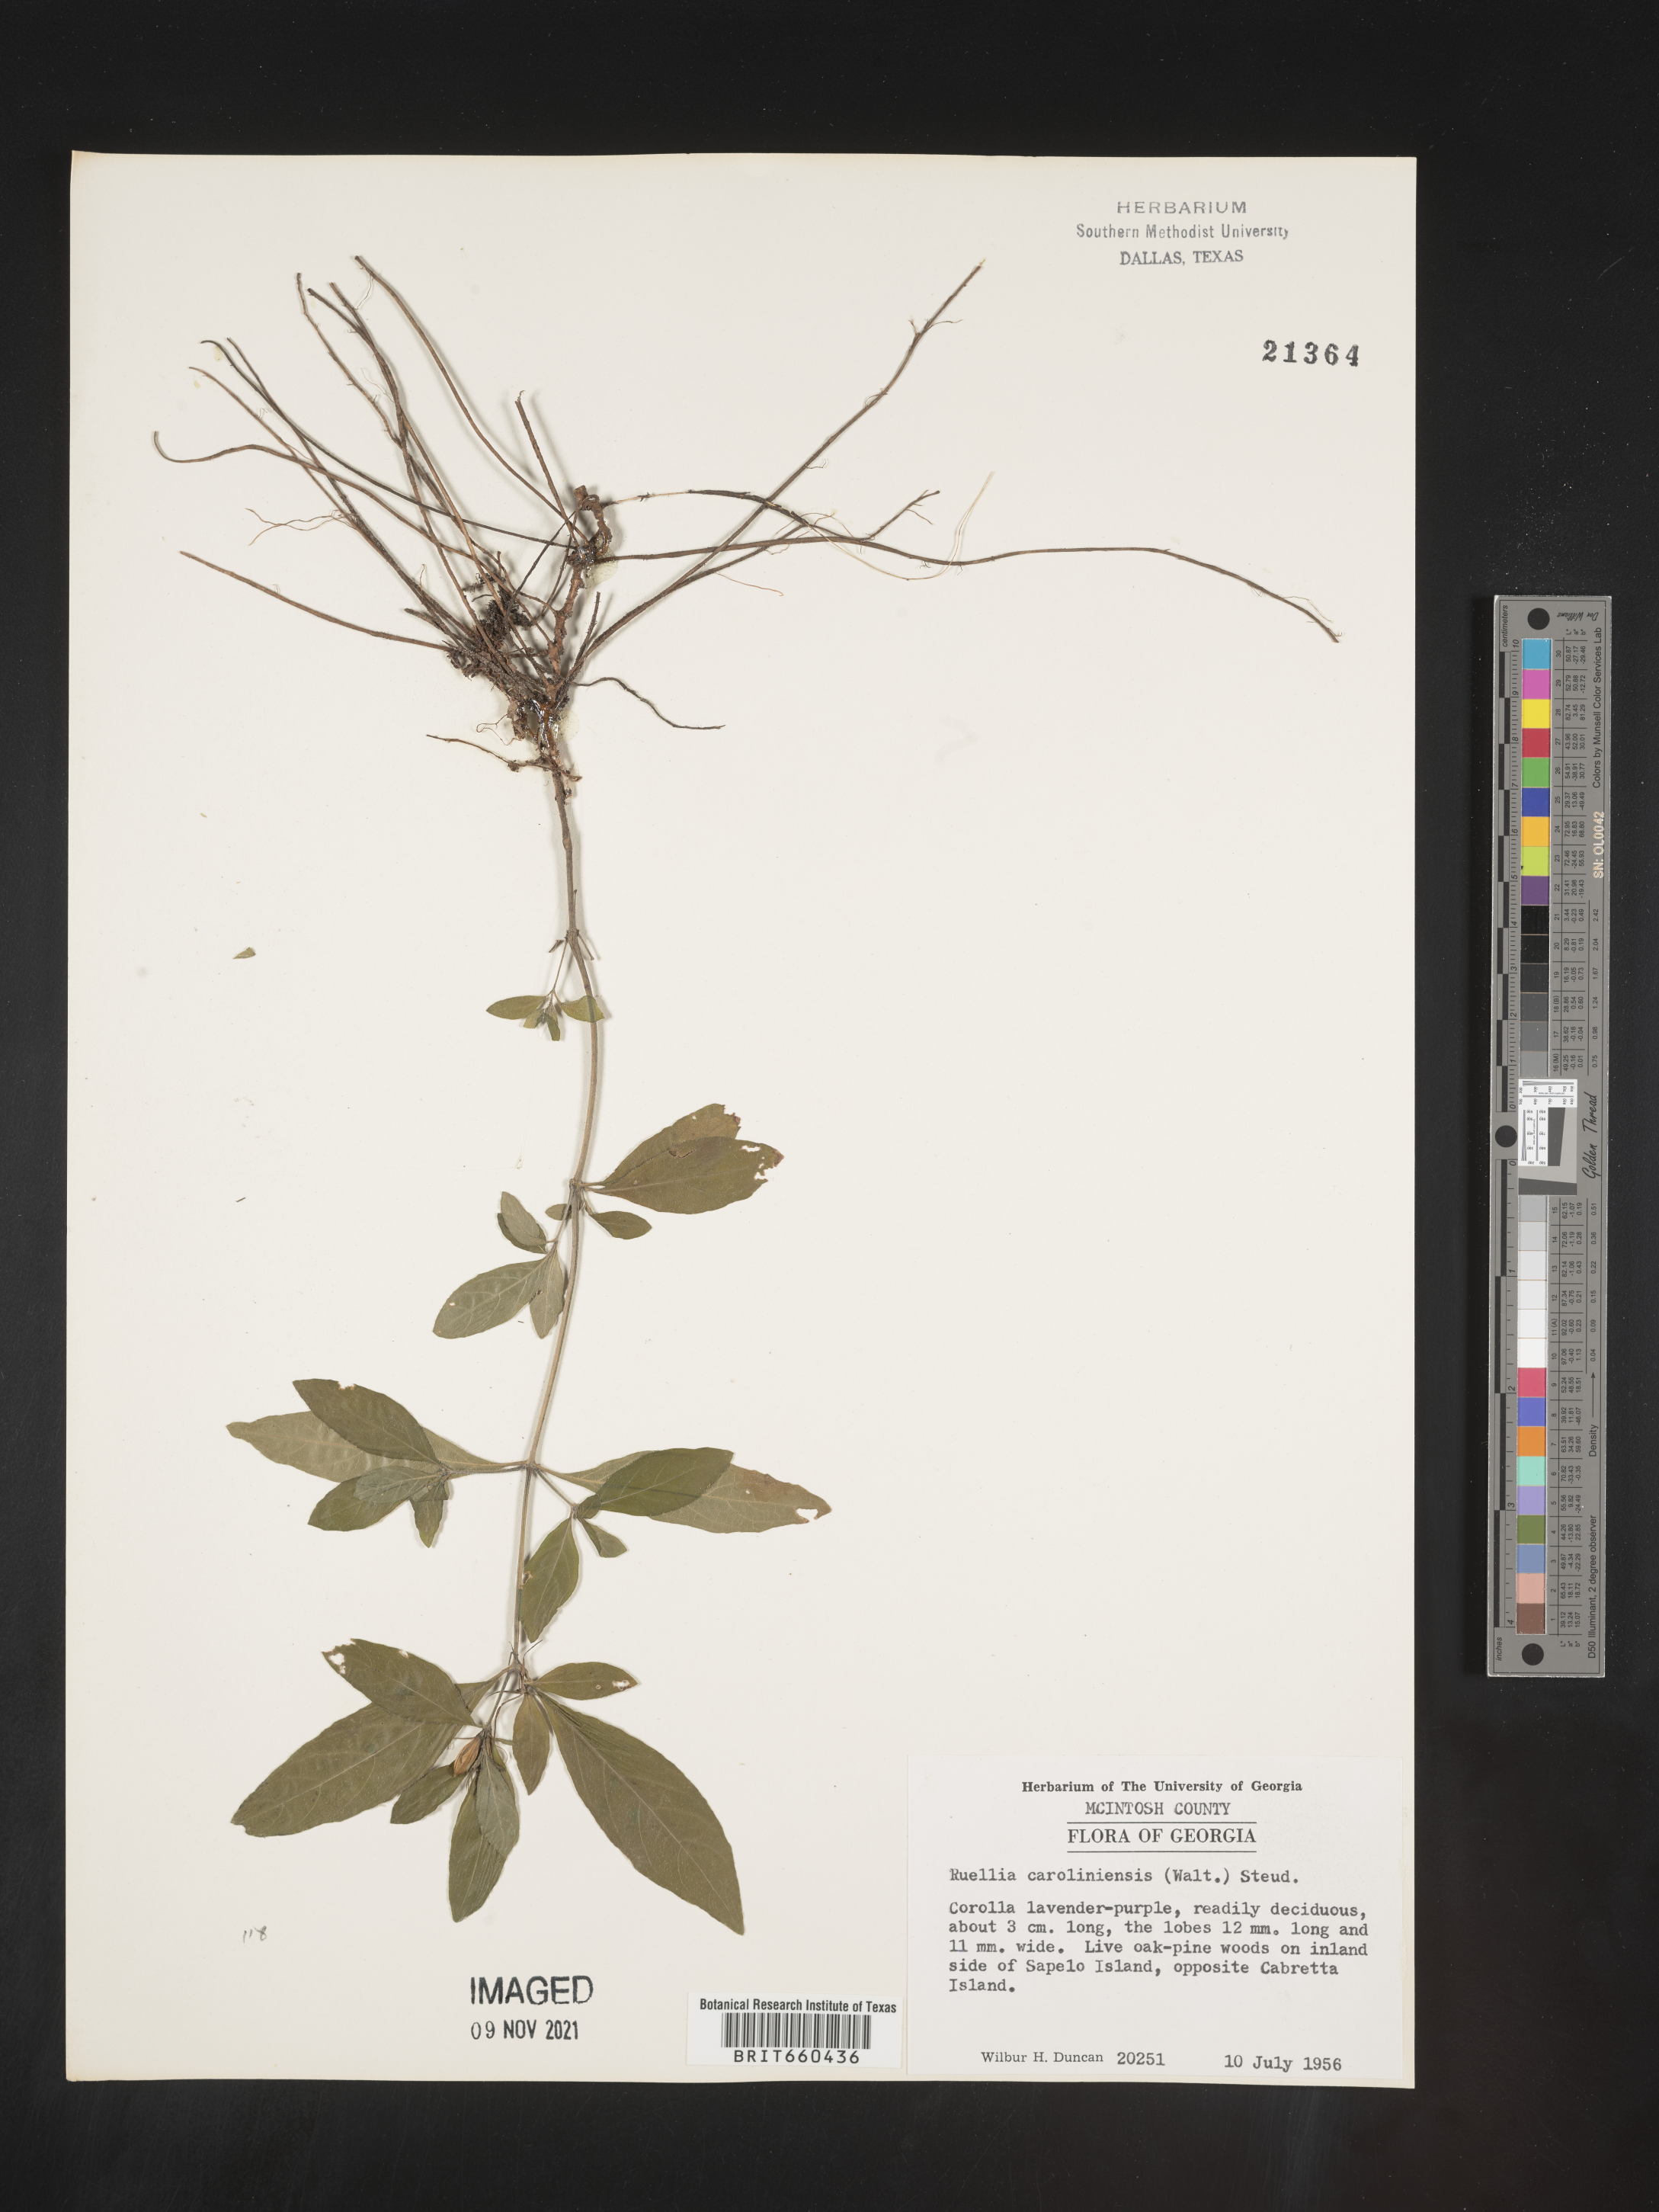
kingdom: Plantae
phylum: Tracheophyta
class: Magnoliopsida
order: Lamiales
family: Acanthaceae
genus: Ruellia
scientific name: Ruellia caroliniensis
